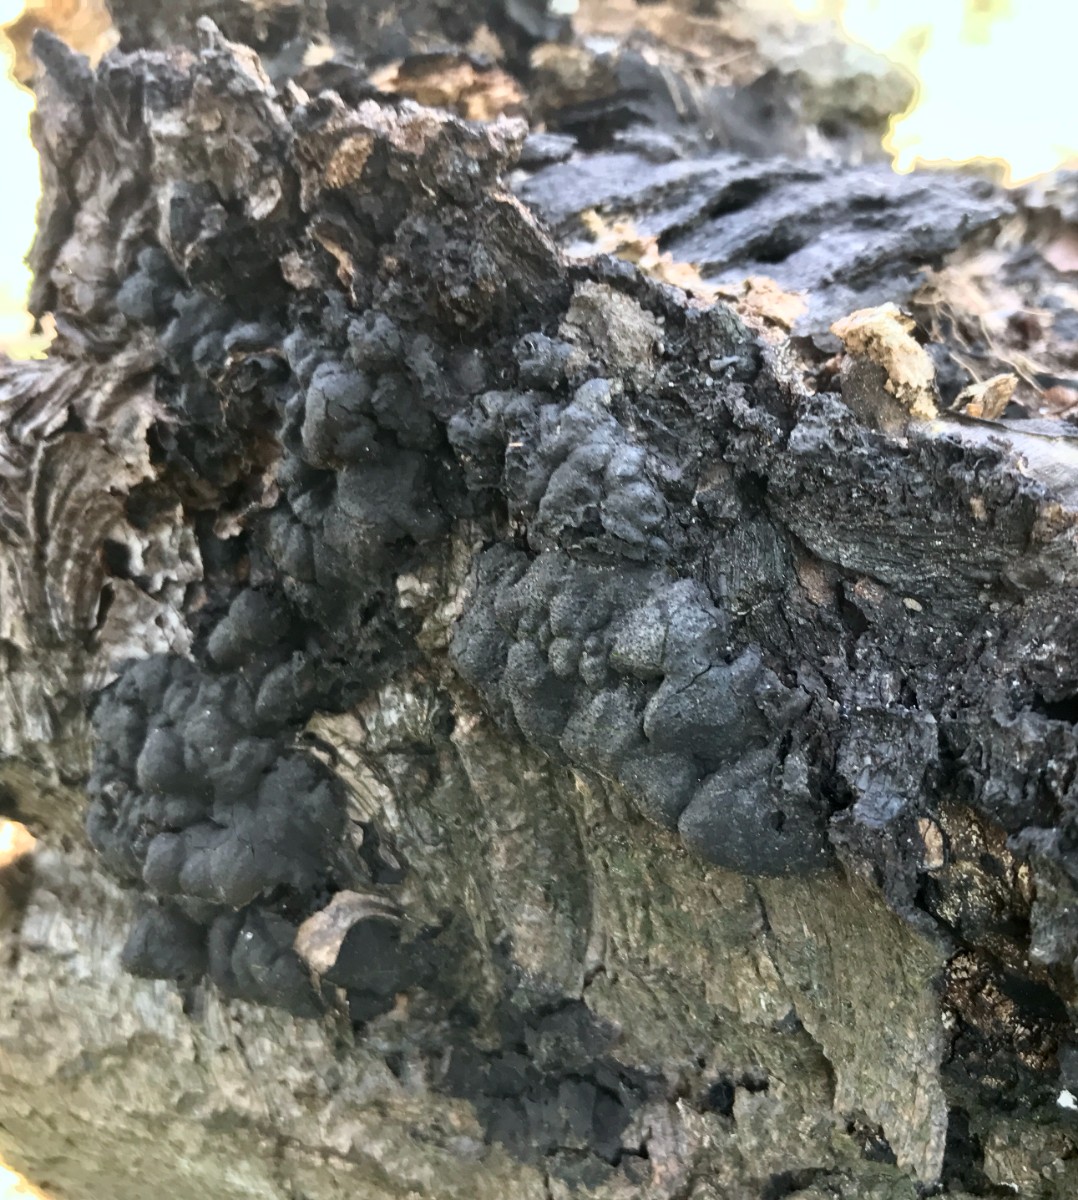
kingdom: Fungi
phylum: Ascomycota
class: Sordariomycetes
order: Xylariales
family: Xylariaceae
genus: Kretzschmaria
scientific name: Kretzschmaria deusta
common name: stor kulsvamp
